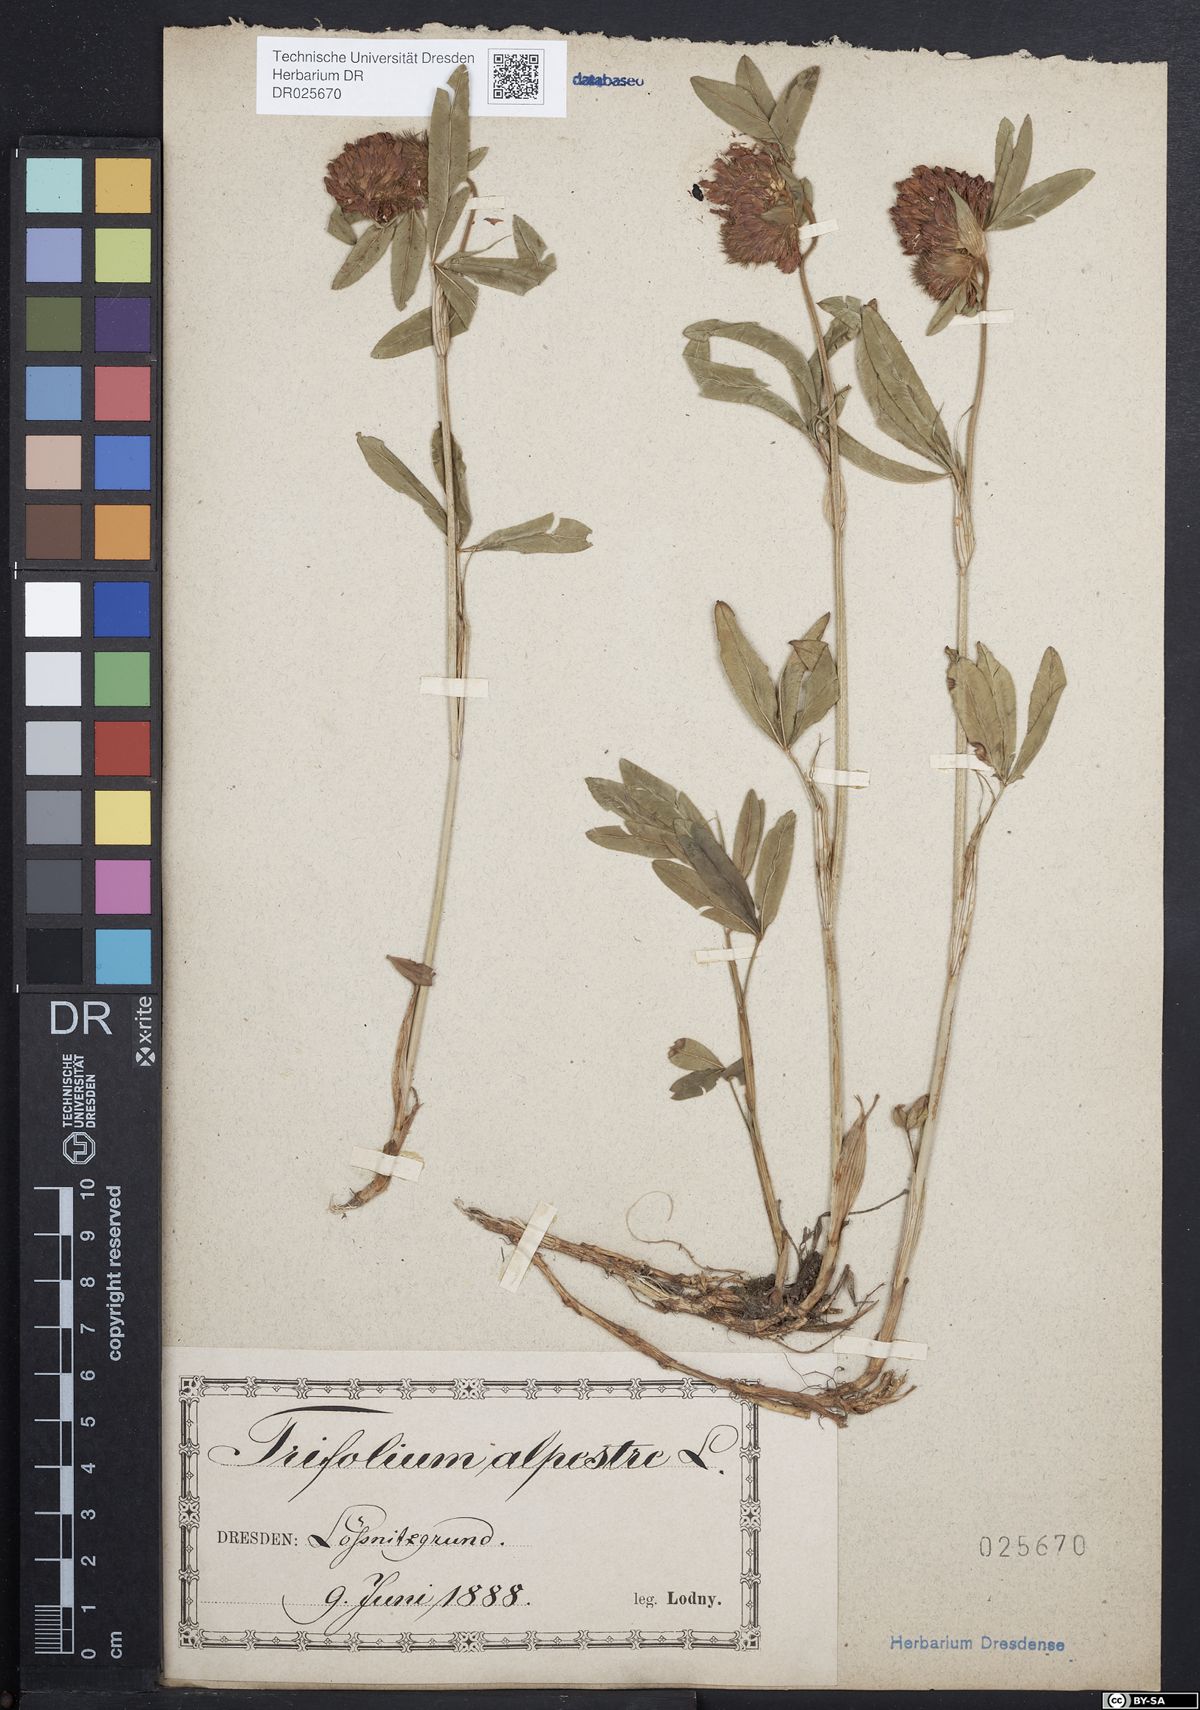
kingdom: Plantae
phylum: Tracheophyta
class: Magnoliopsida
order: Fabales
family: Fabaceae
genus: Trifolium
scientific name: Trifolium alpestre
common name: Owl-head clover
